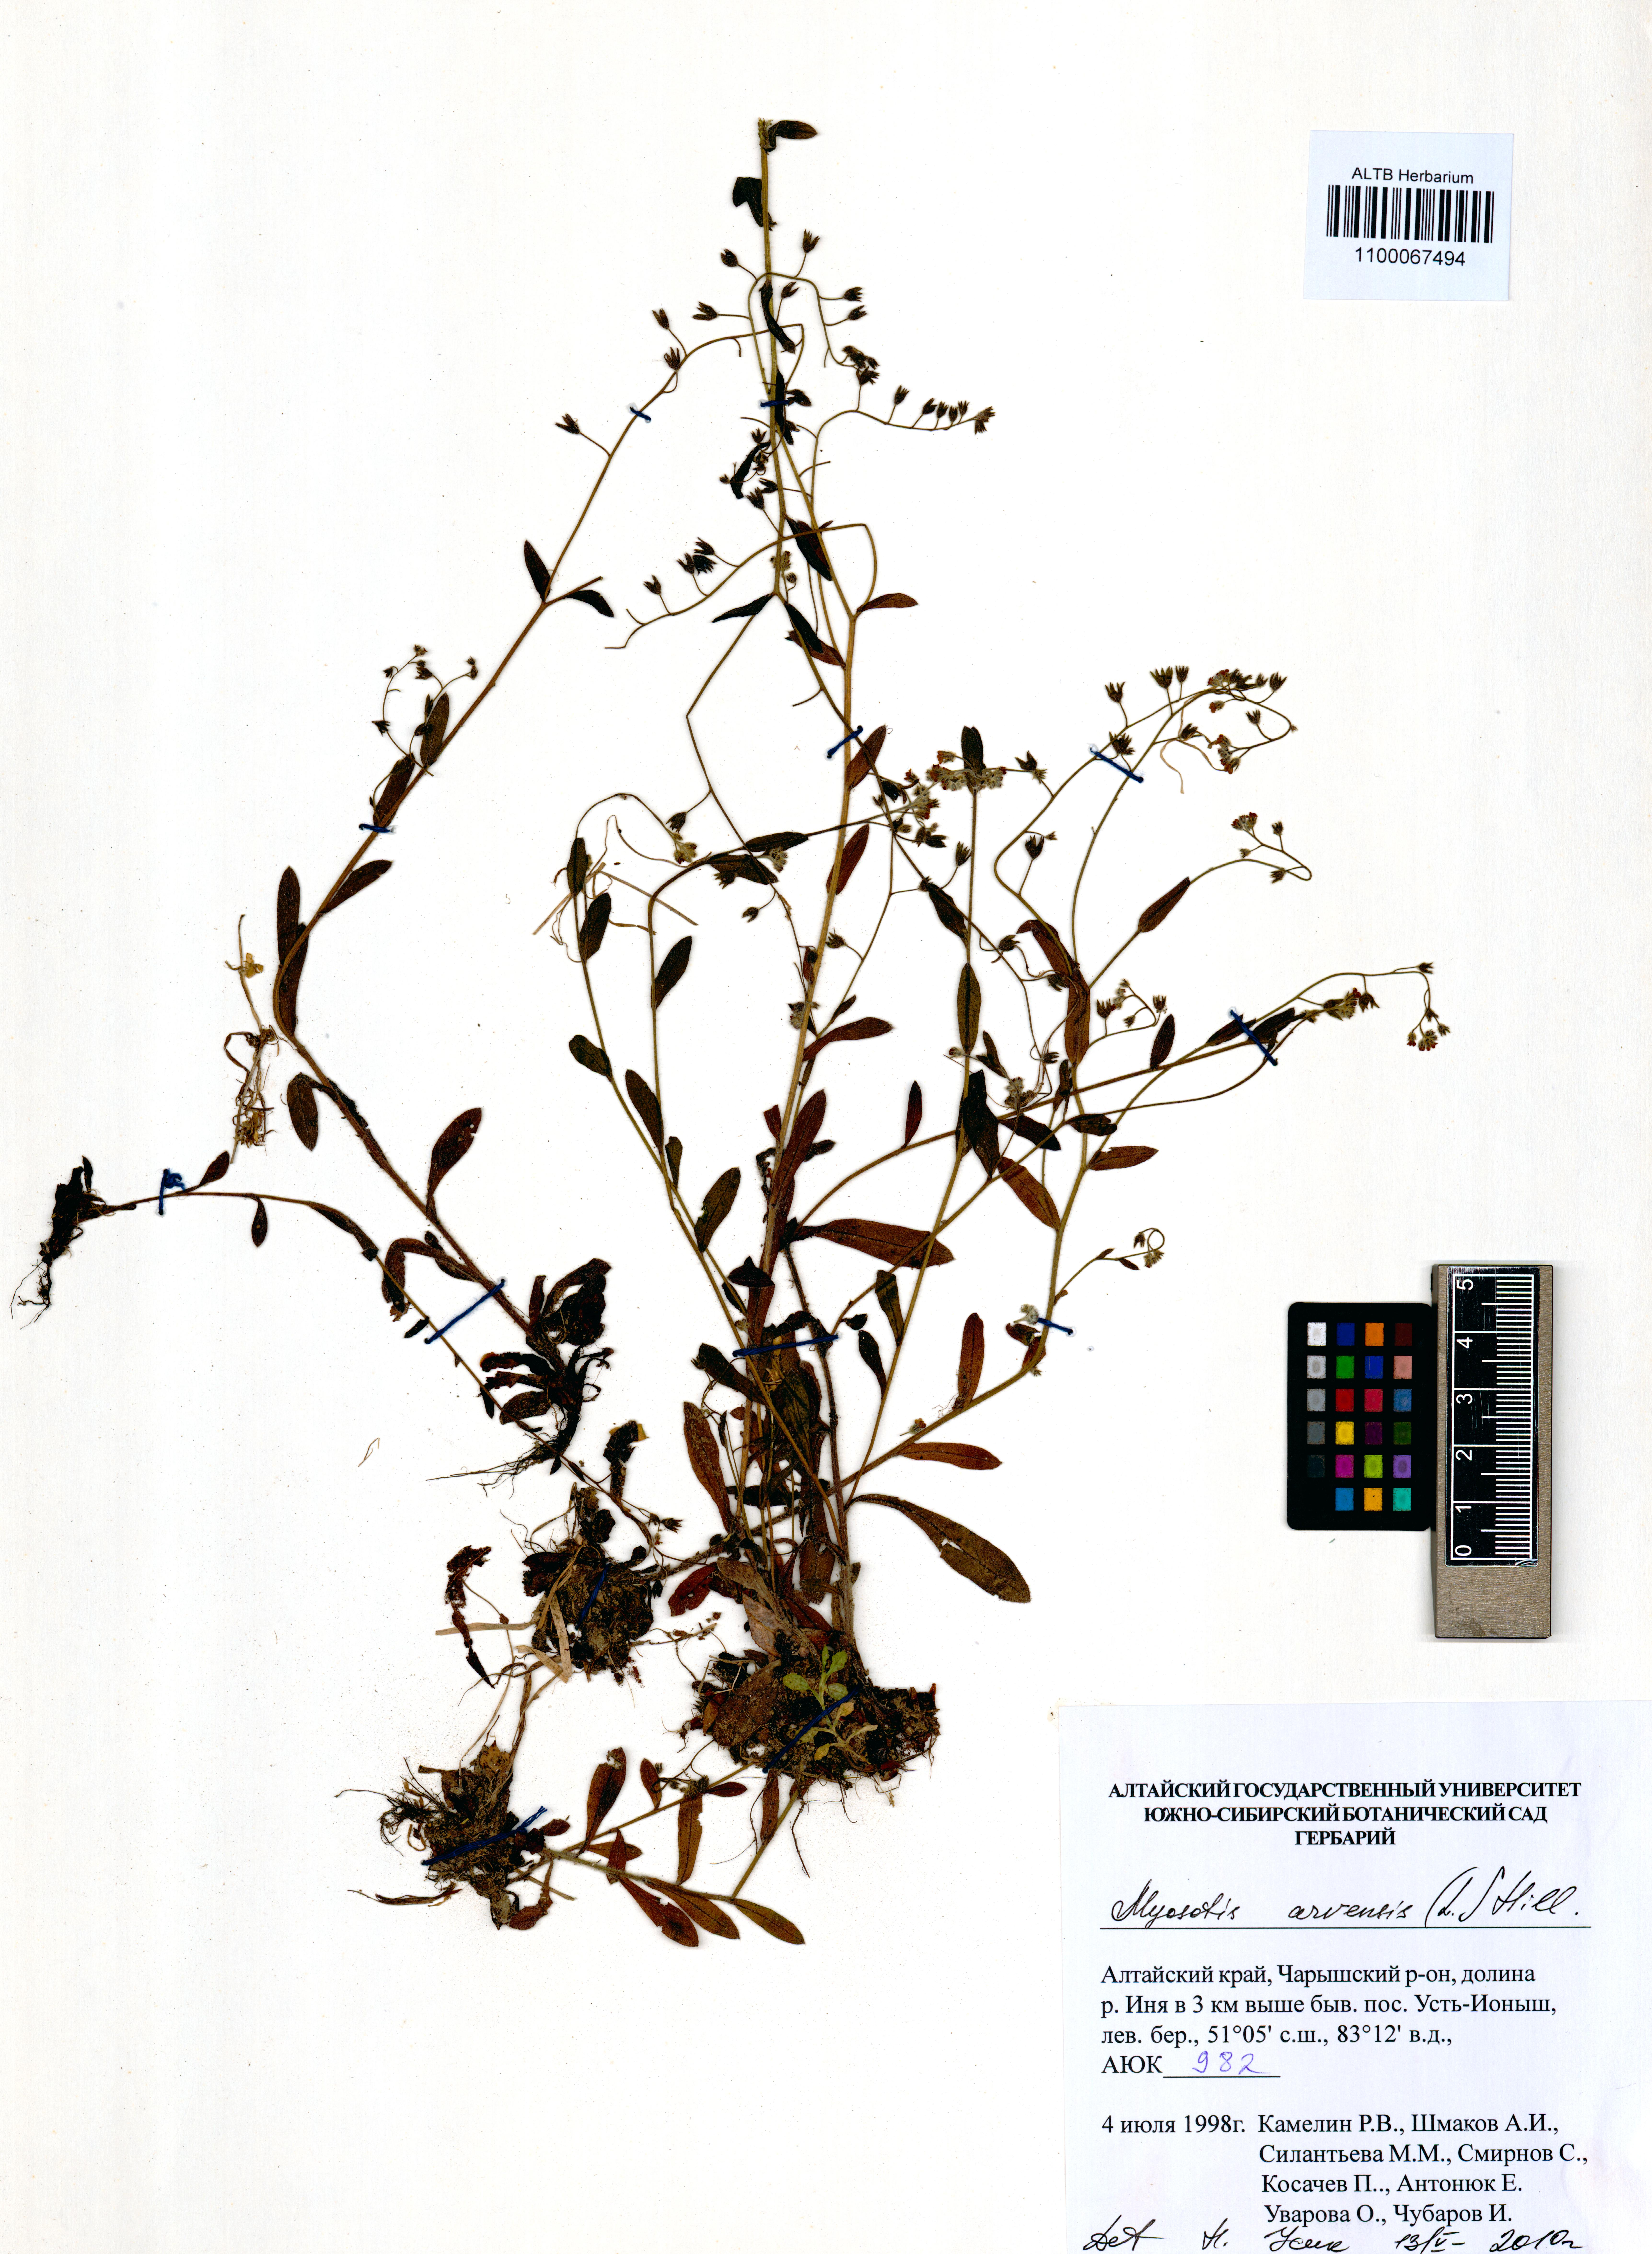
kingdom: Plantae
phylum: Tracheophyta
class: Magnoliopsida
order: Boraginales
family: Boraginaceae
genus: Myosotis
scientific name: Myosotis arvensis
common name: Field forget-me-not
